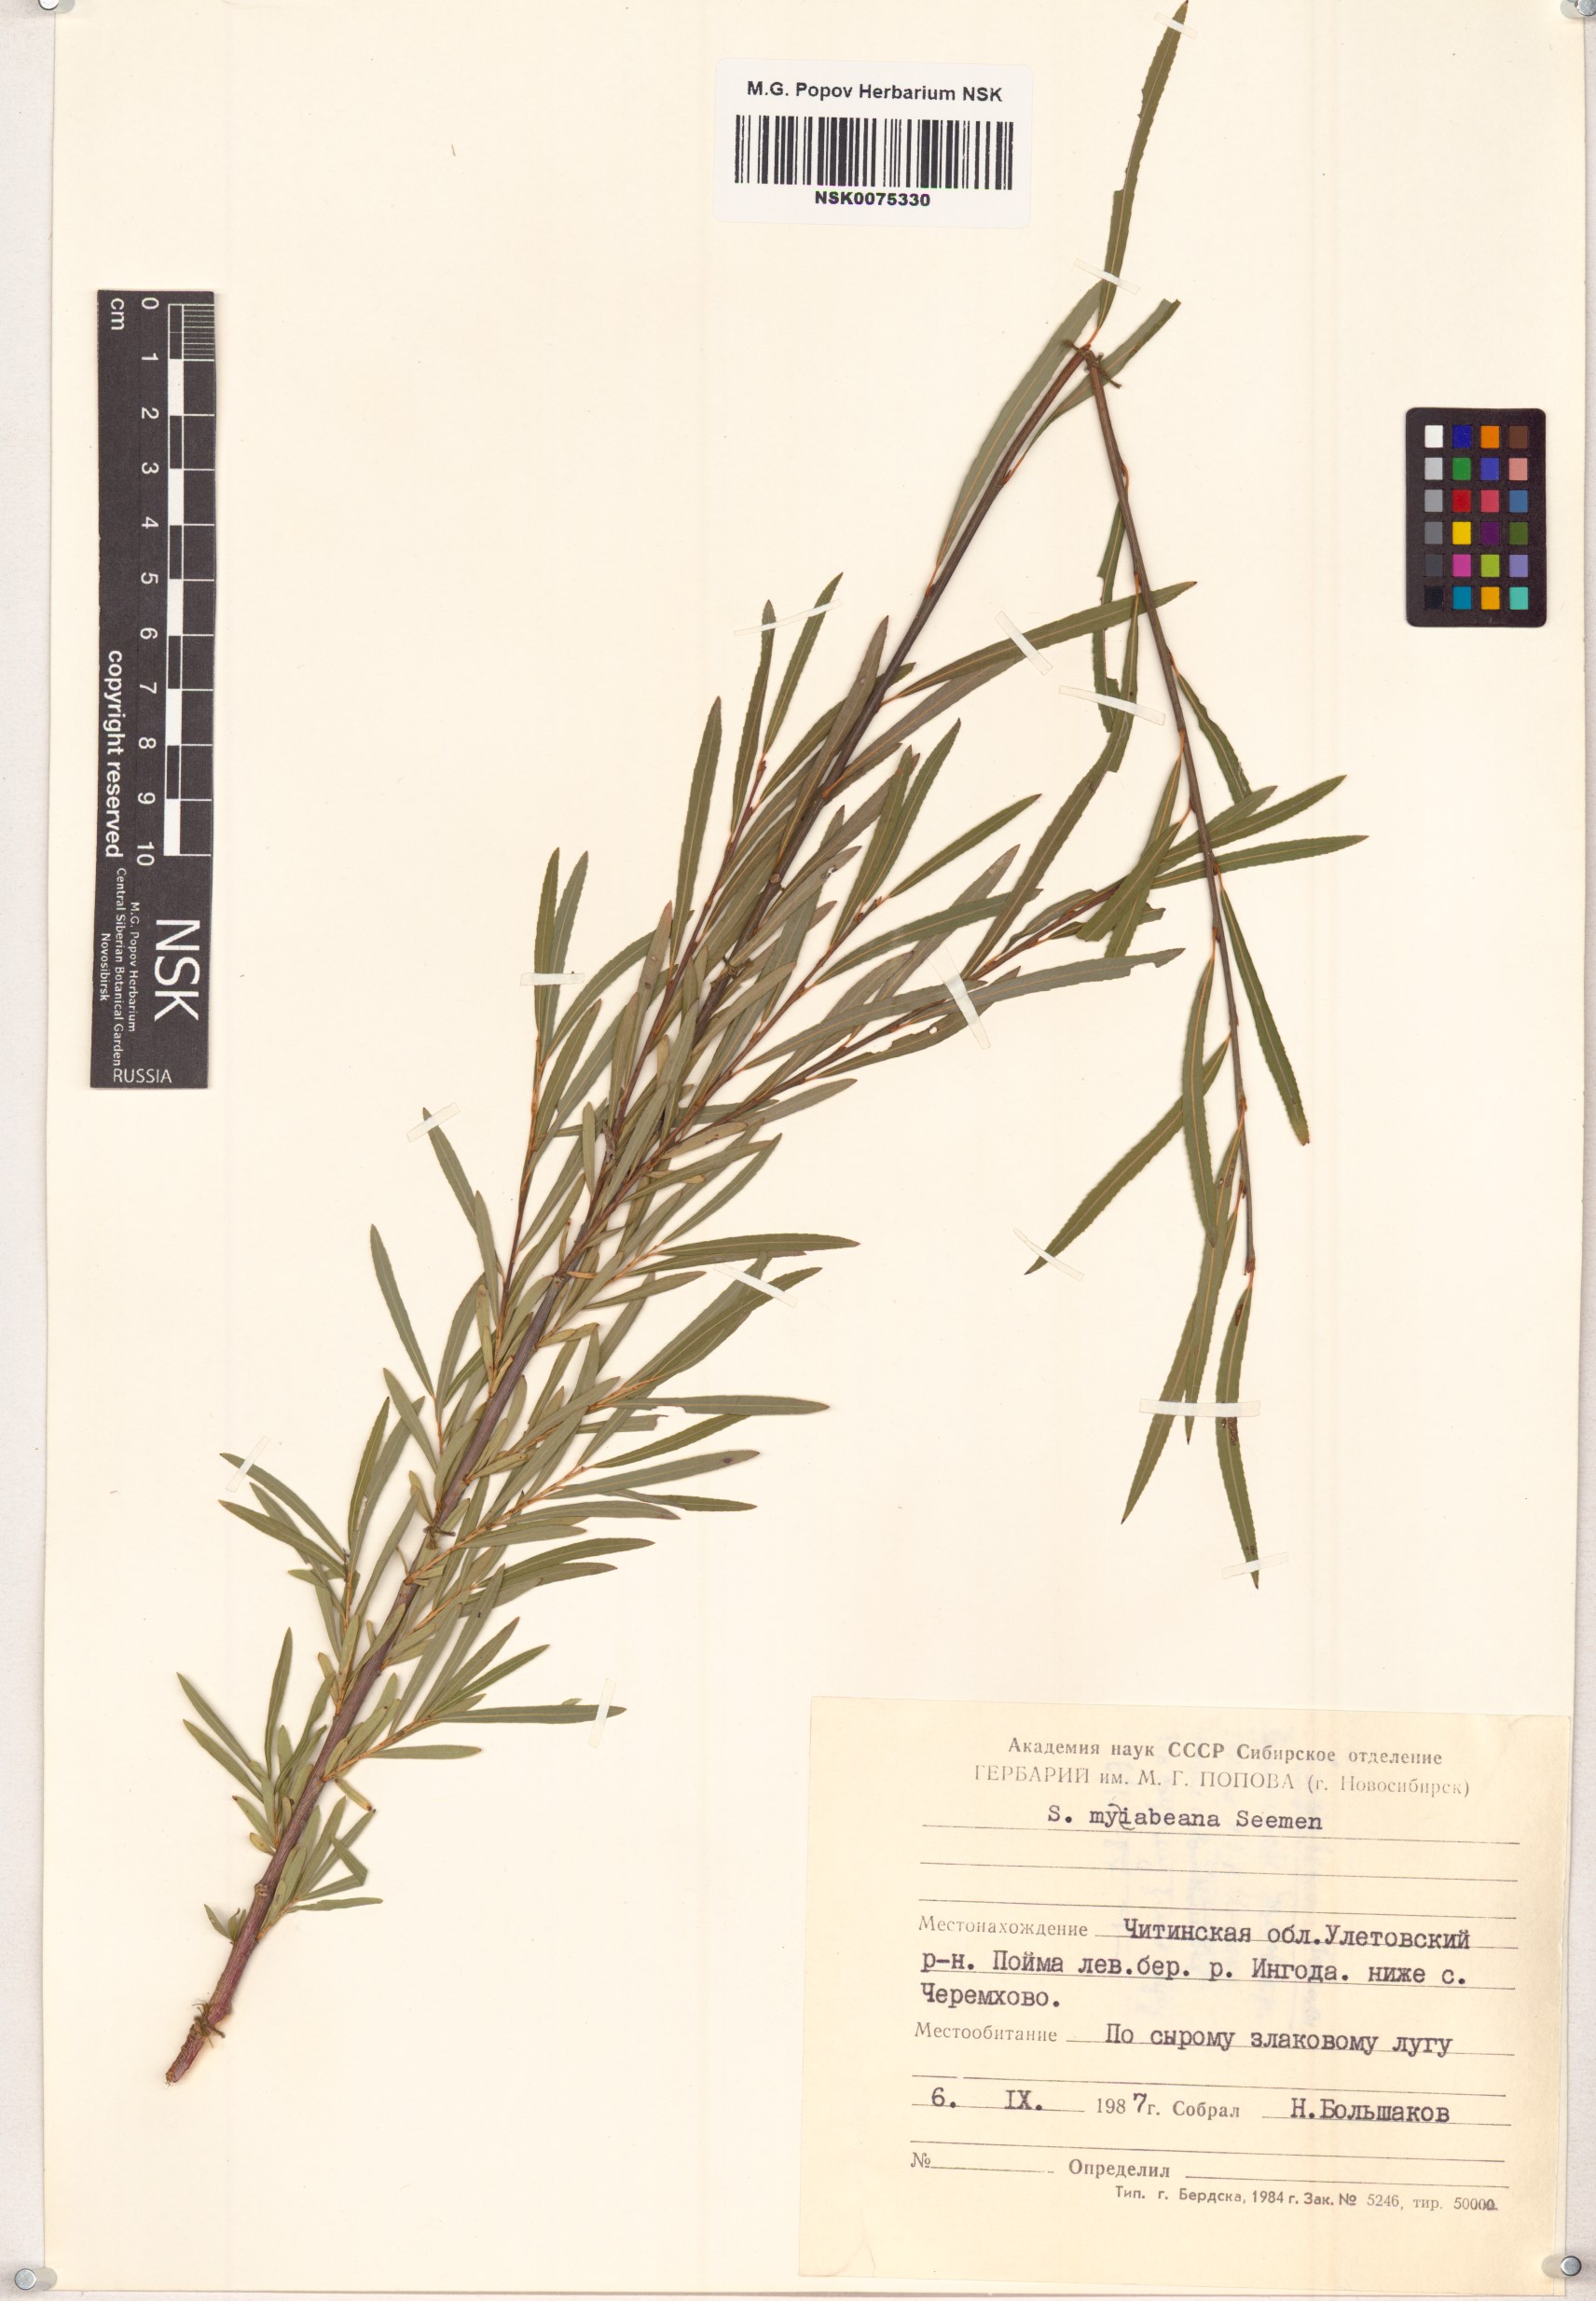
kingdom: Plantae
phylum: Tracheophyta
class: Magnoliopsida
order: Malpighiales
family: Salicaceae
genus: Salix
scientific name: Salix miyabeana
